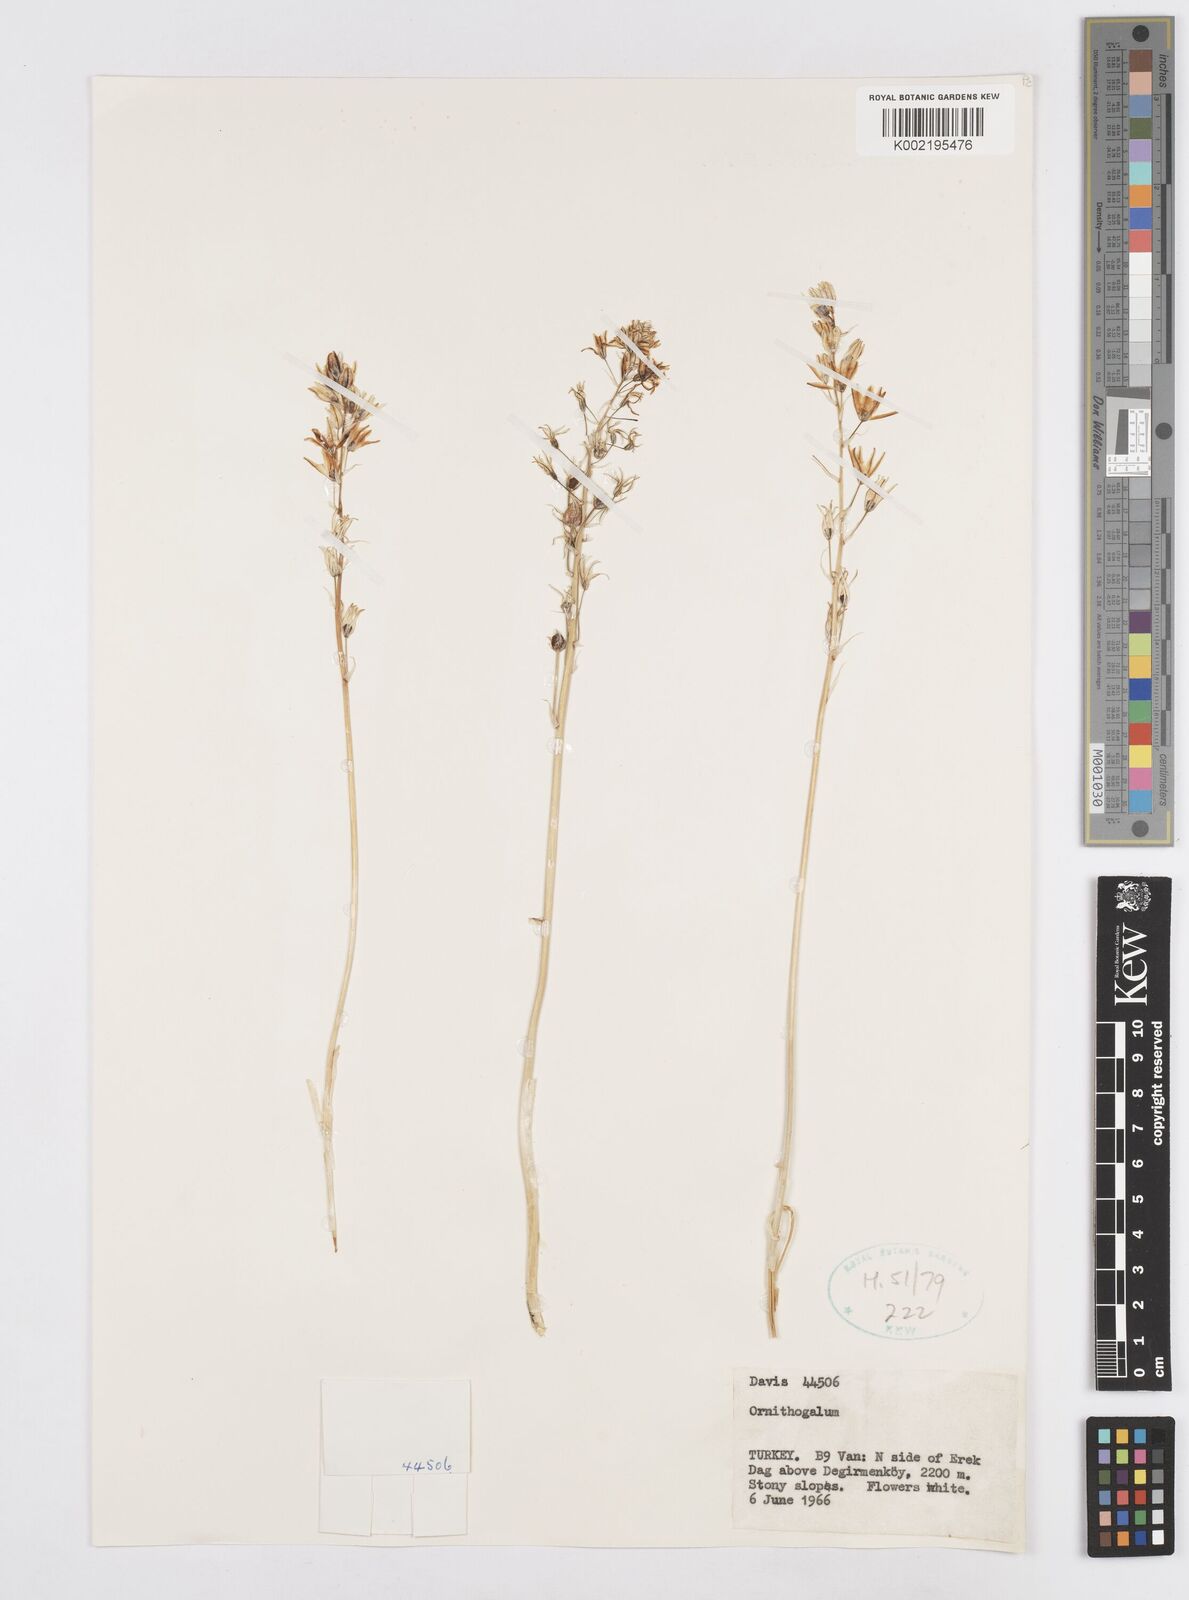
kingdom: Plantae
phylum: Tracheophyta
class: Liliopsida
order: Asparagales
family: Asparagaceae
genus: Ornithogalum
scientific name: Ornithogalum
